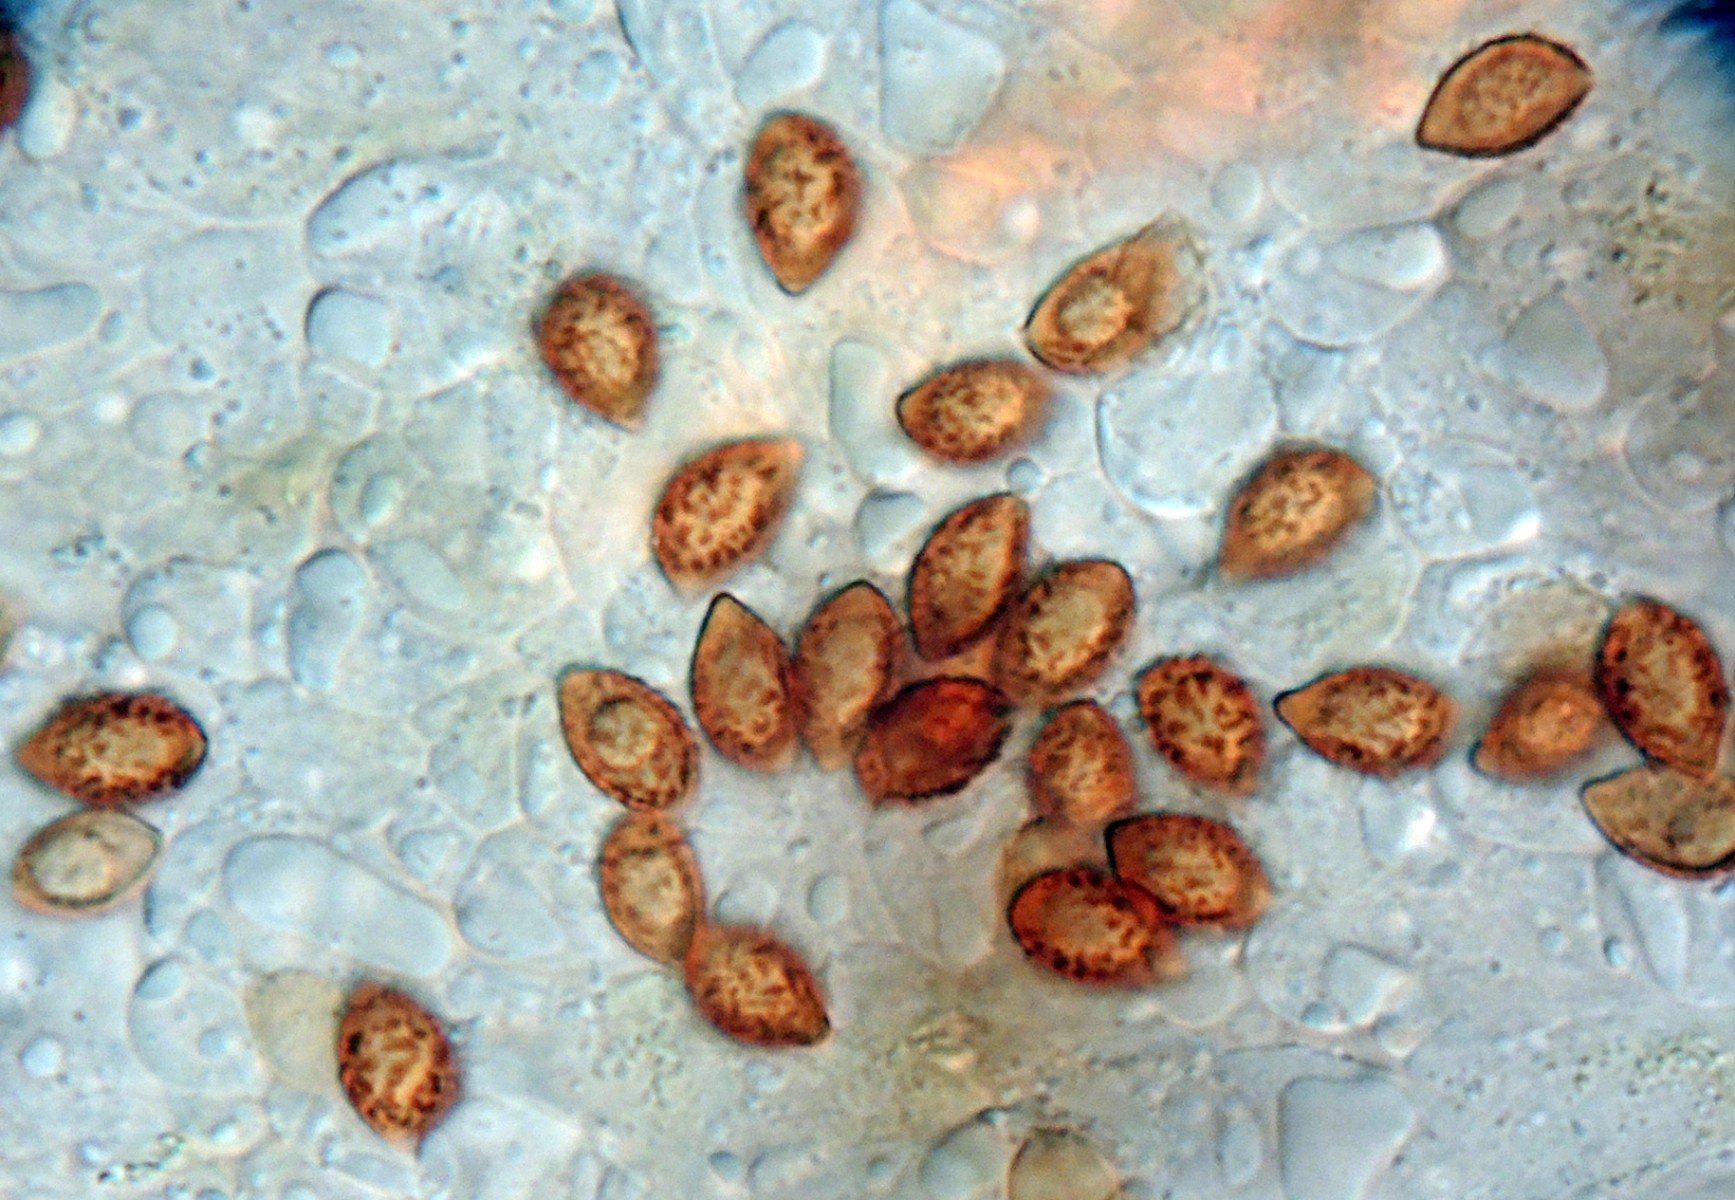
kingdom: Fungi
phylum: Basidiomycota
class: Agaricomycetes
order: Agaricales
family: Cortinariaceae
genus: Calonarius
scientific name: Calonarius humolens
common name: radise-slørhat
